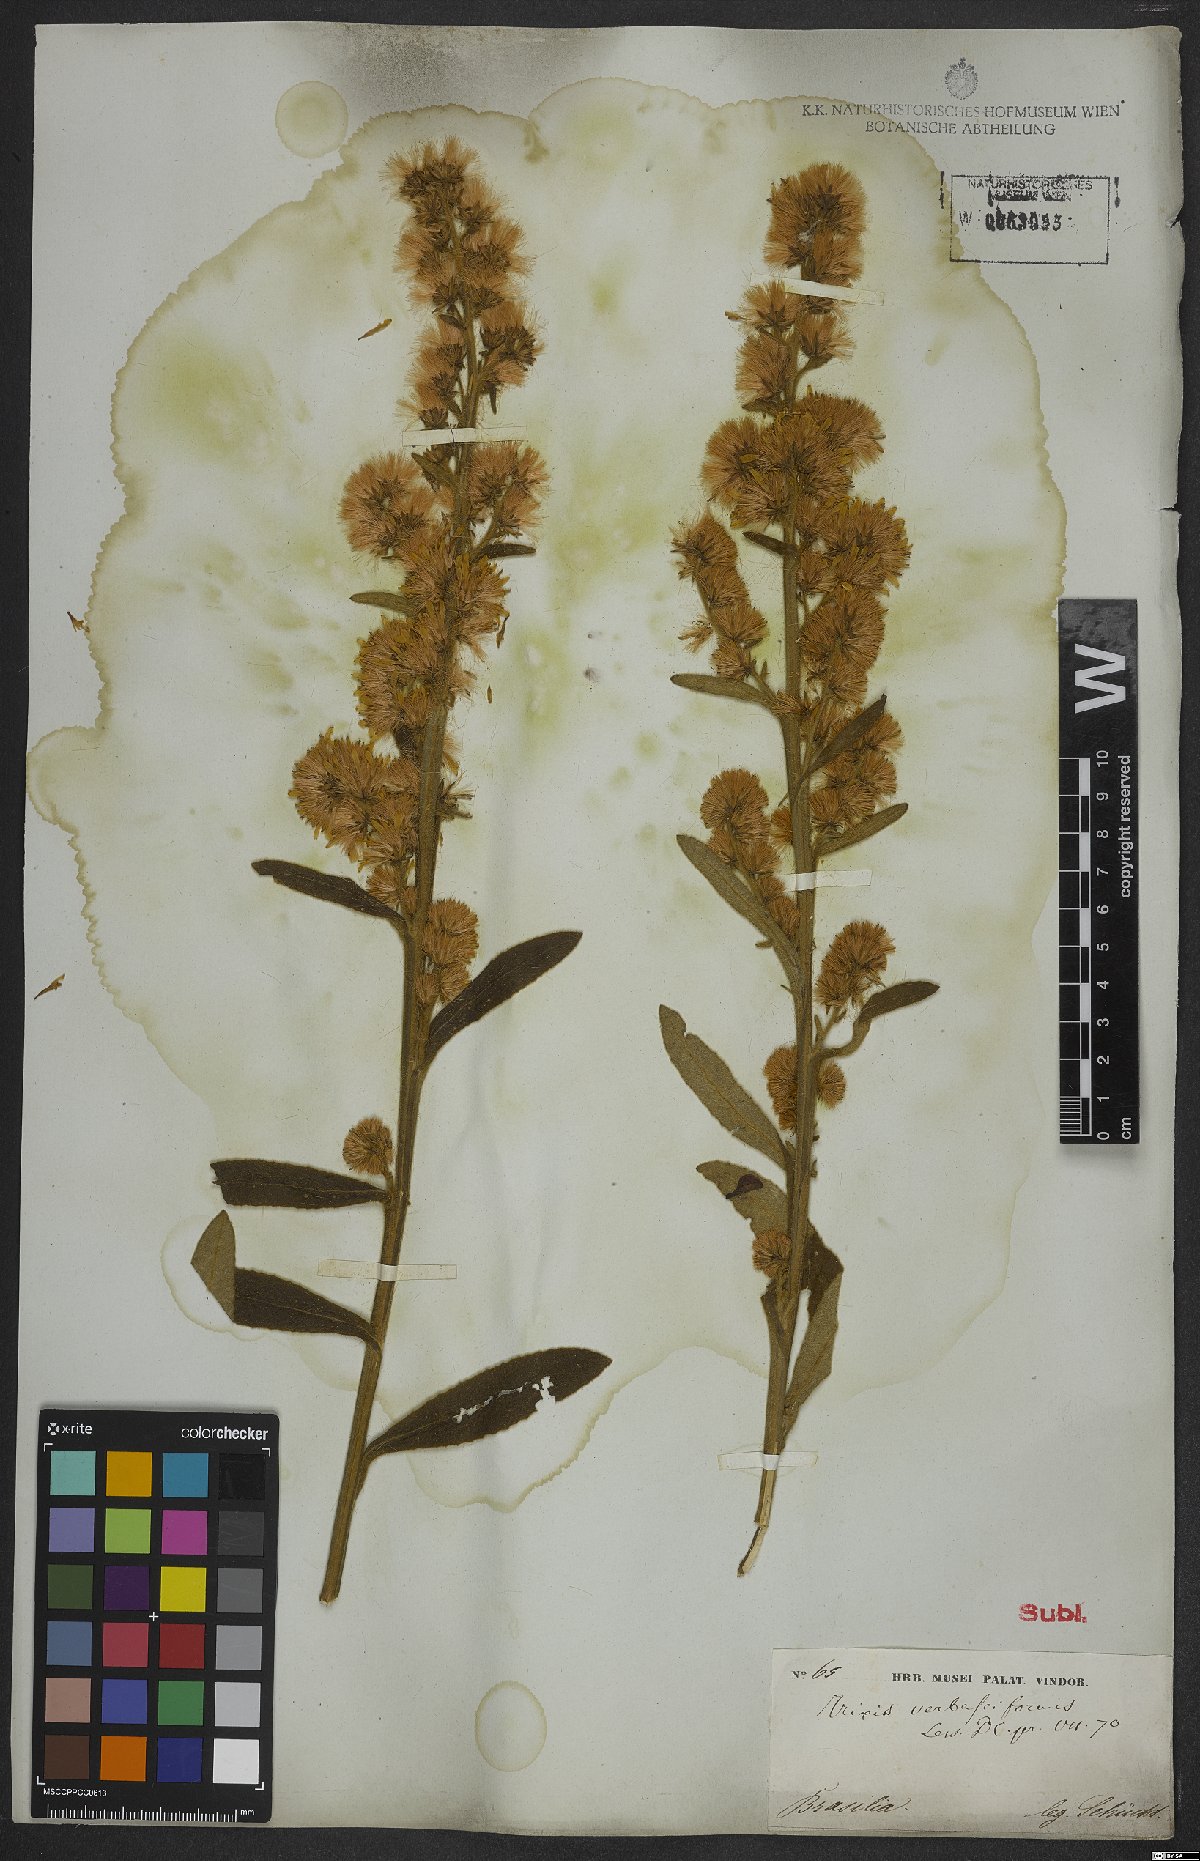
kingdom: Plantae
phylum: Tracheophyta
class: Magnoliopsida
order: Asterales
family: Asteraceae
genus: Trixis
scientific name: Trixis nobilis
